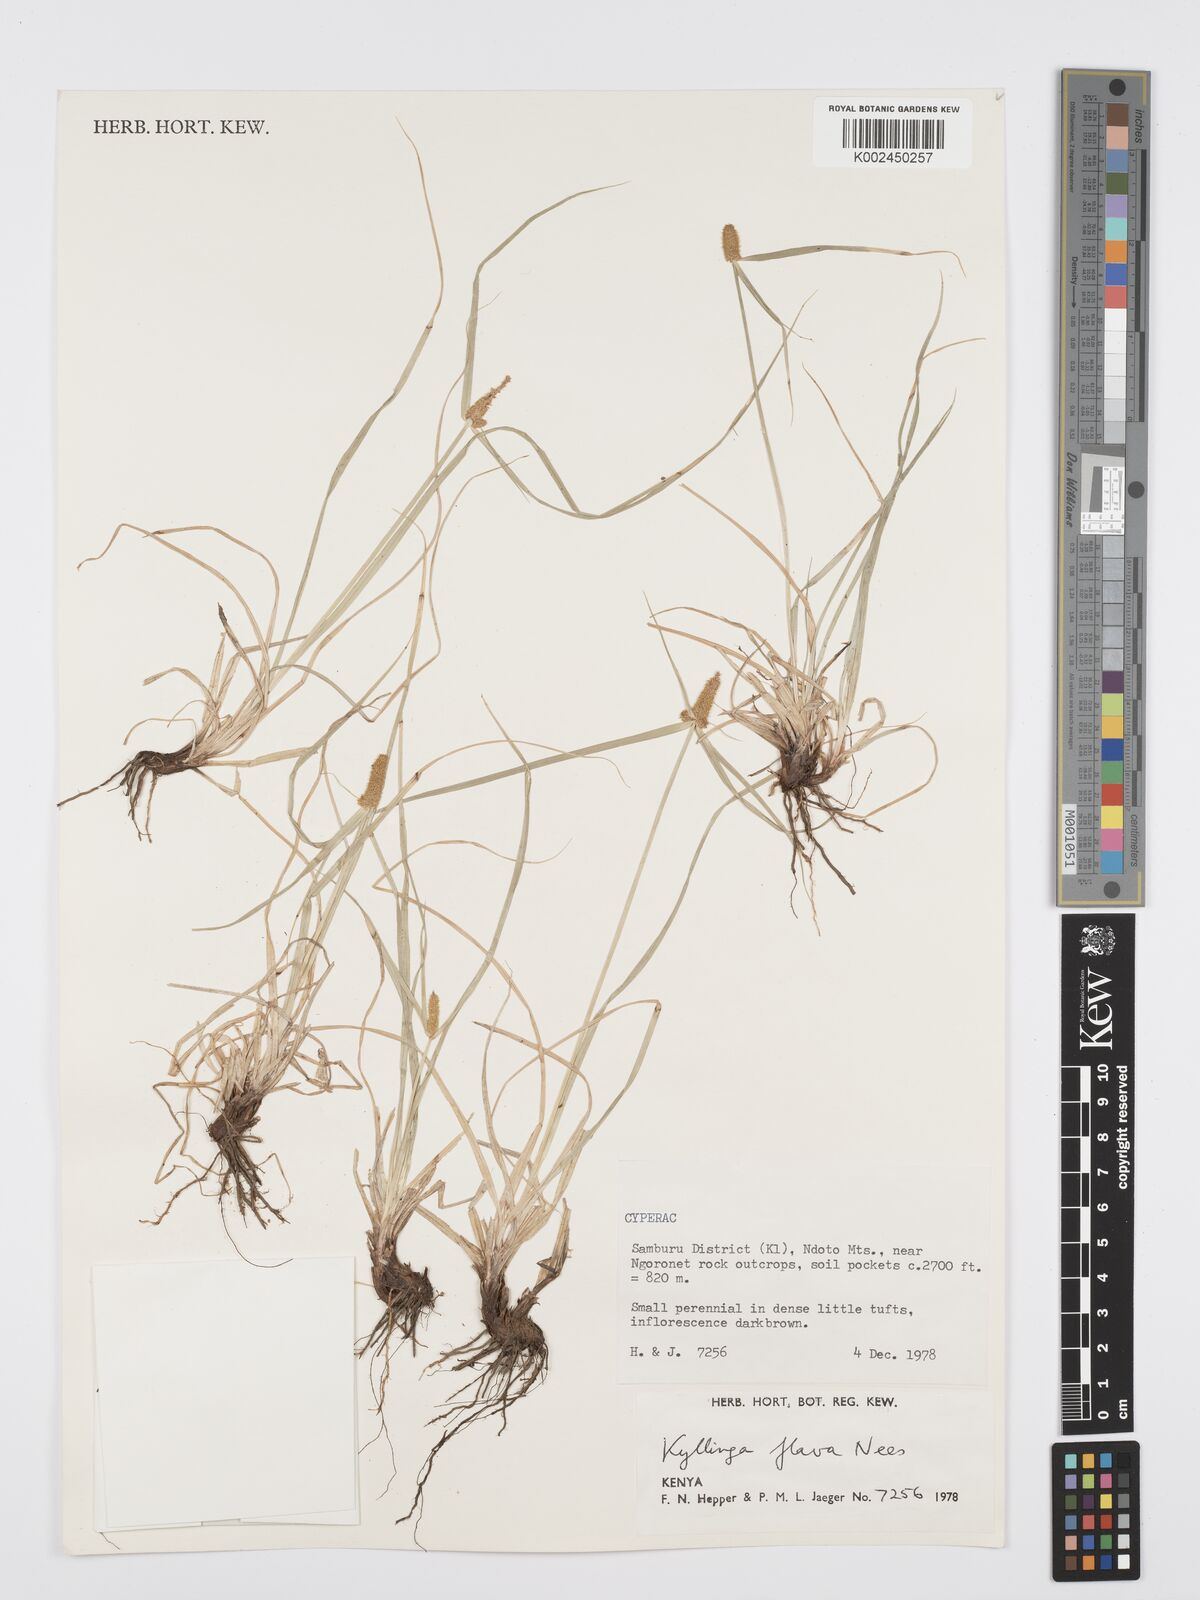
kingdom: Plantae
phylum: Tracheophyta
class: Liliopsida
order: Poales
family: Cyperaceae
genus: Cyperus
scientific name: Cyperus
